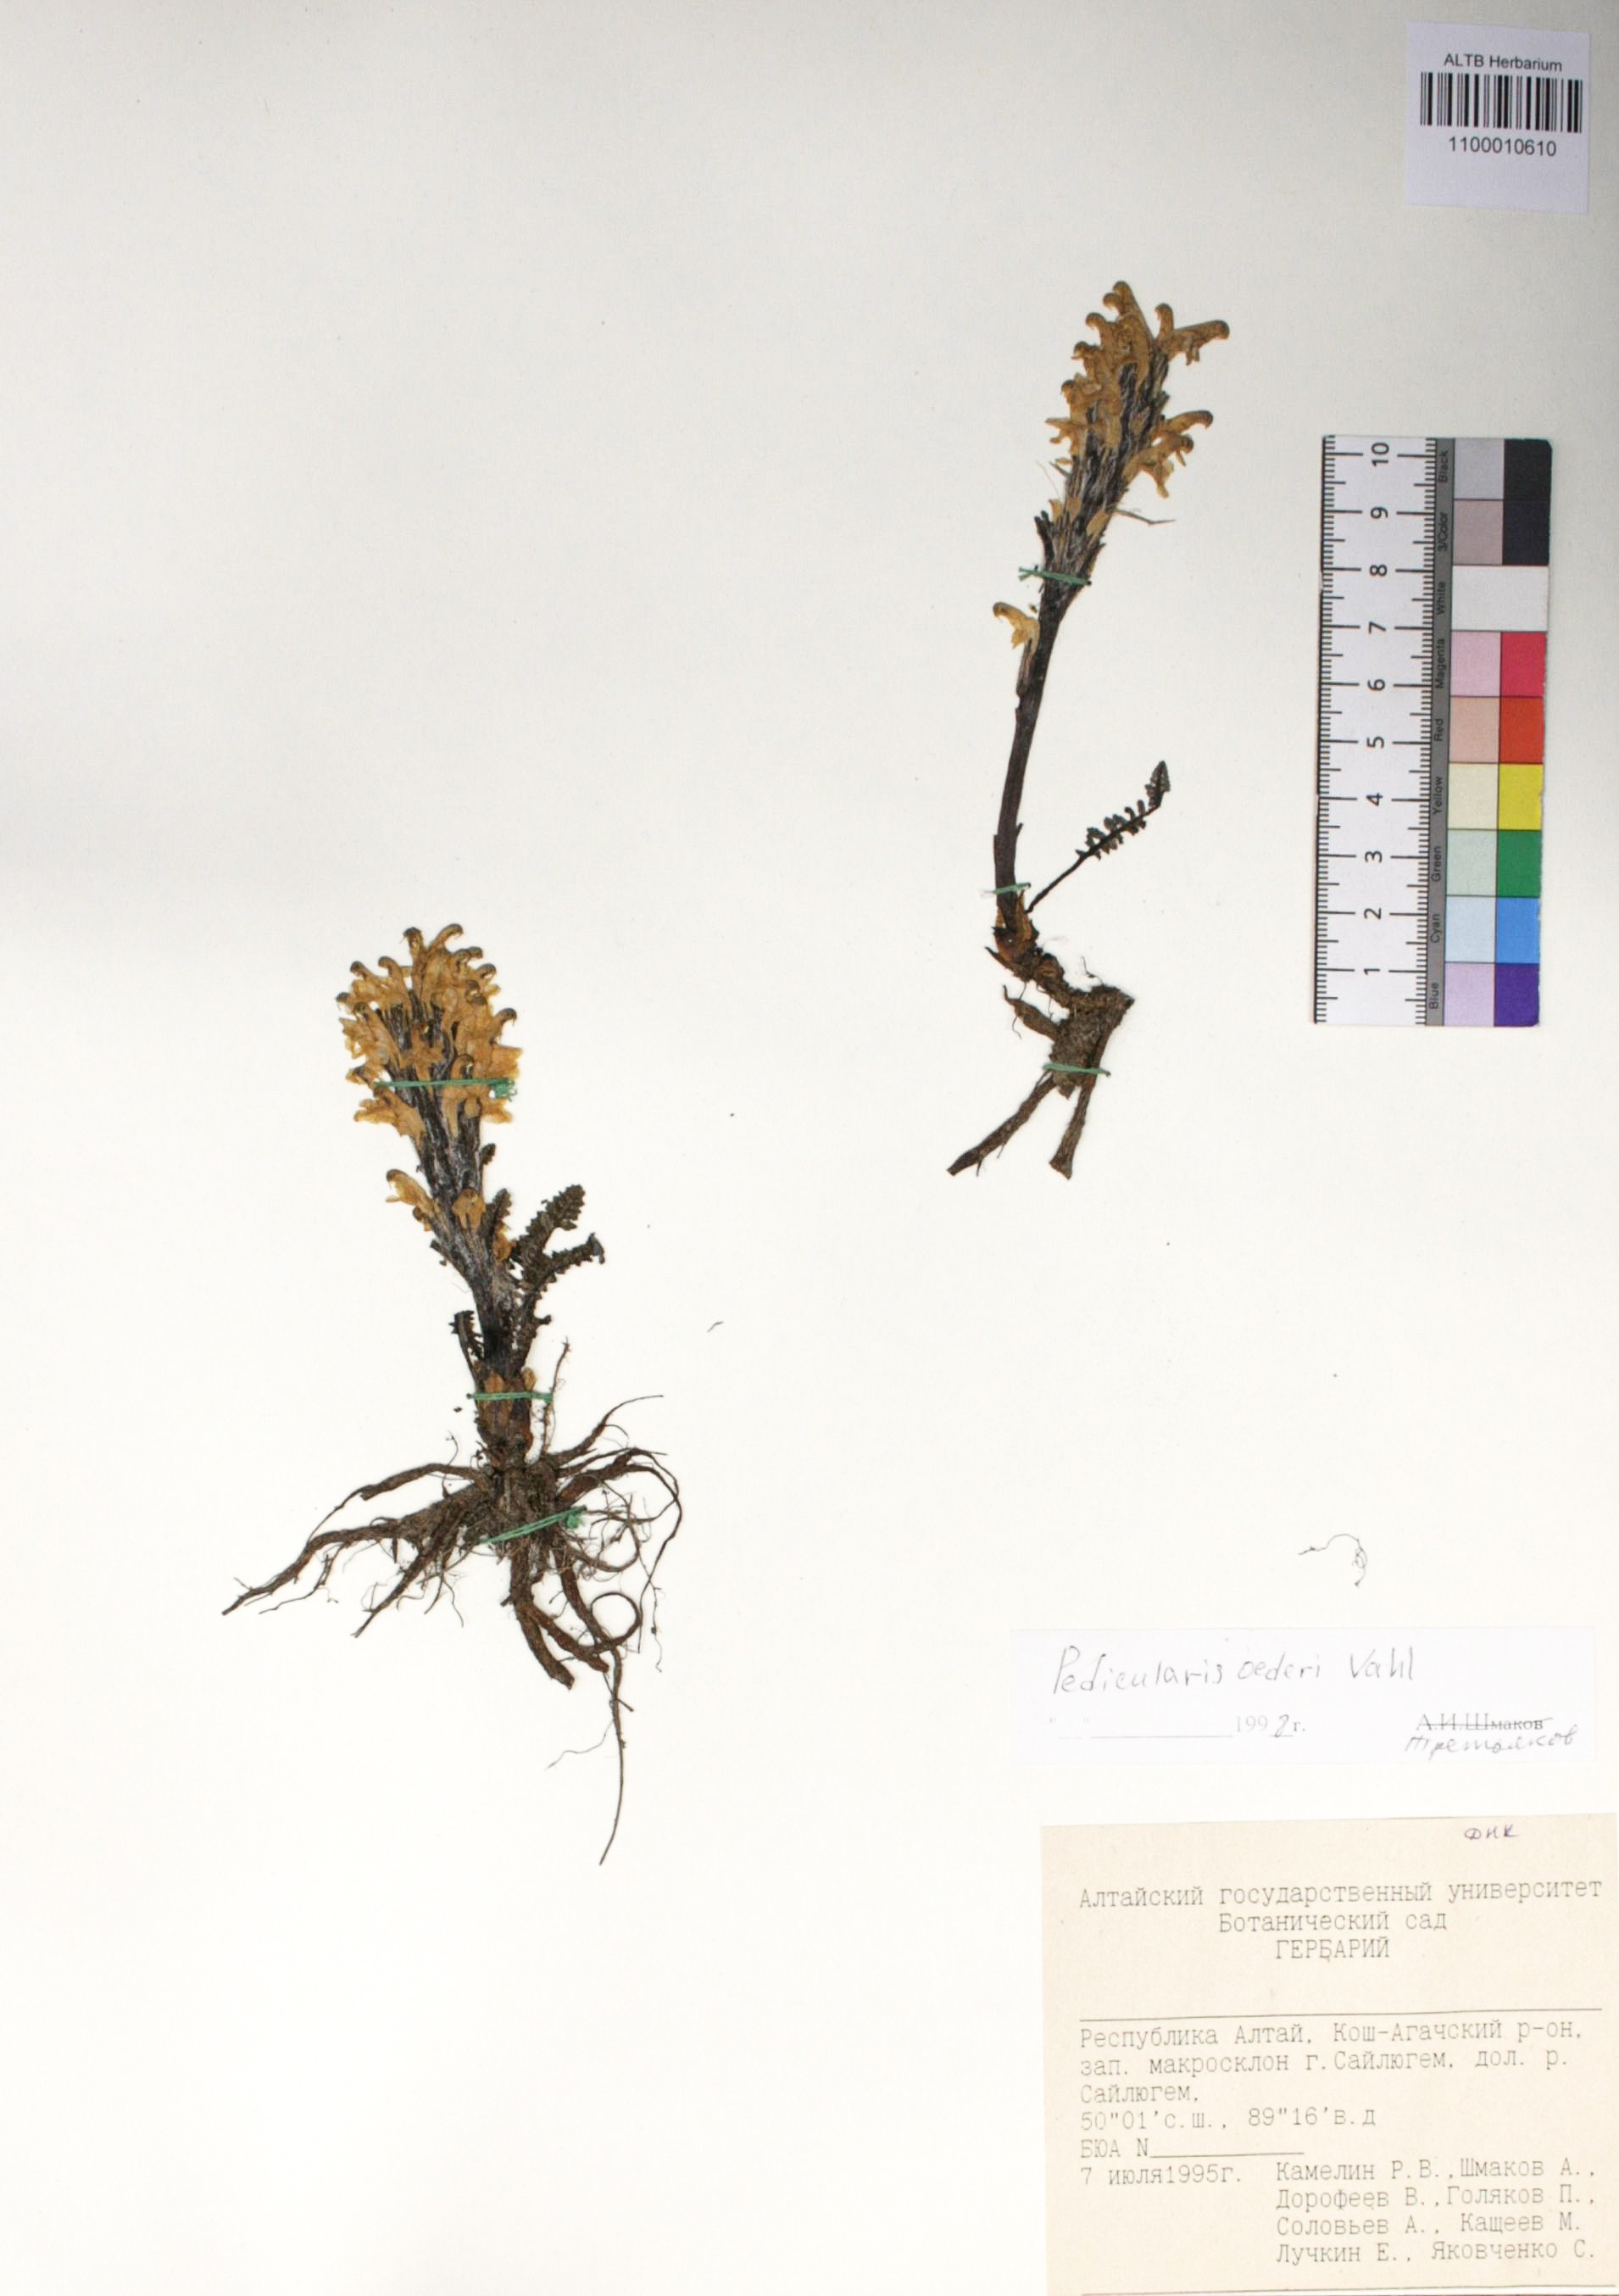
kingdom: Plantae
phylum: Tracheophyta
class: Magnoliopsida
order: Caryophyllales
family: Caryophyllaceae
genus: Silene
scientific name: Silene graminifolia
